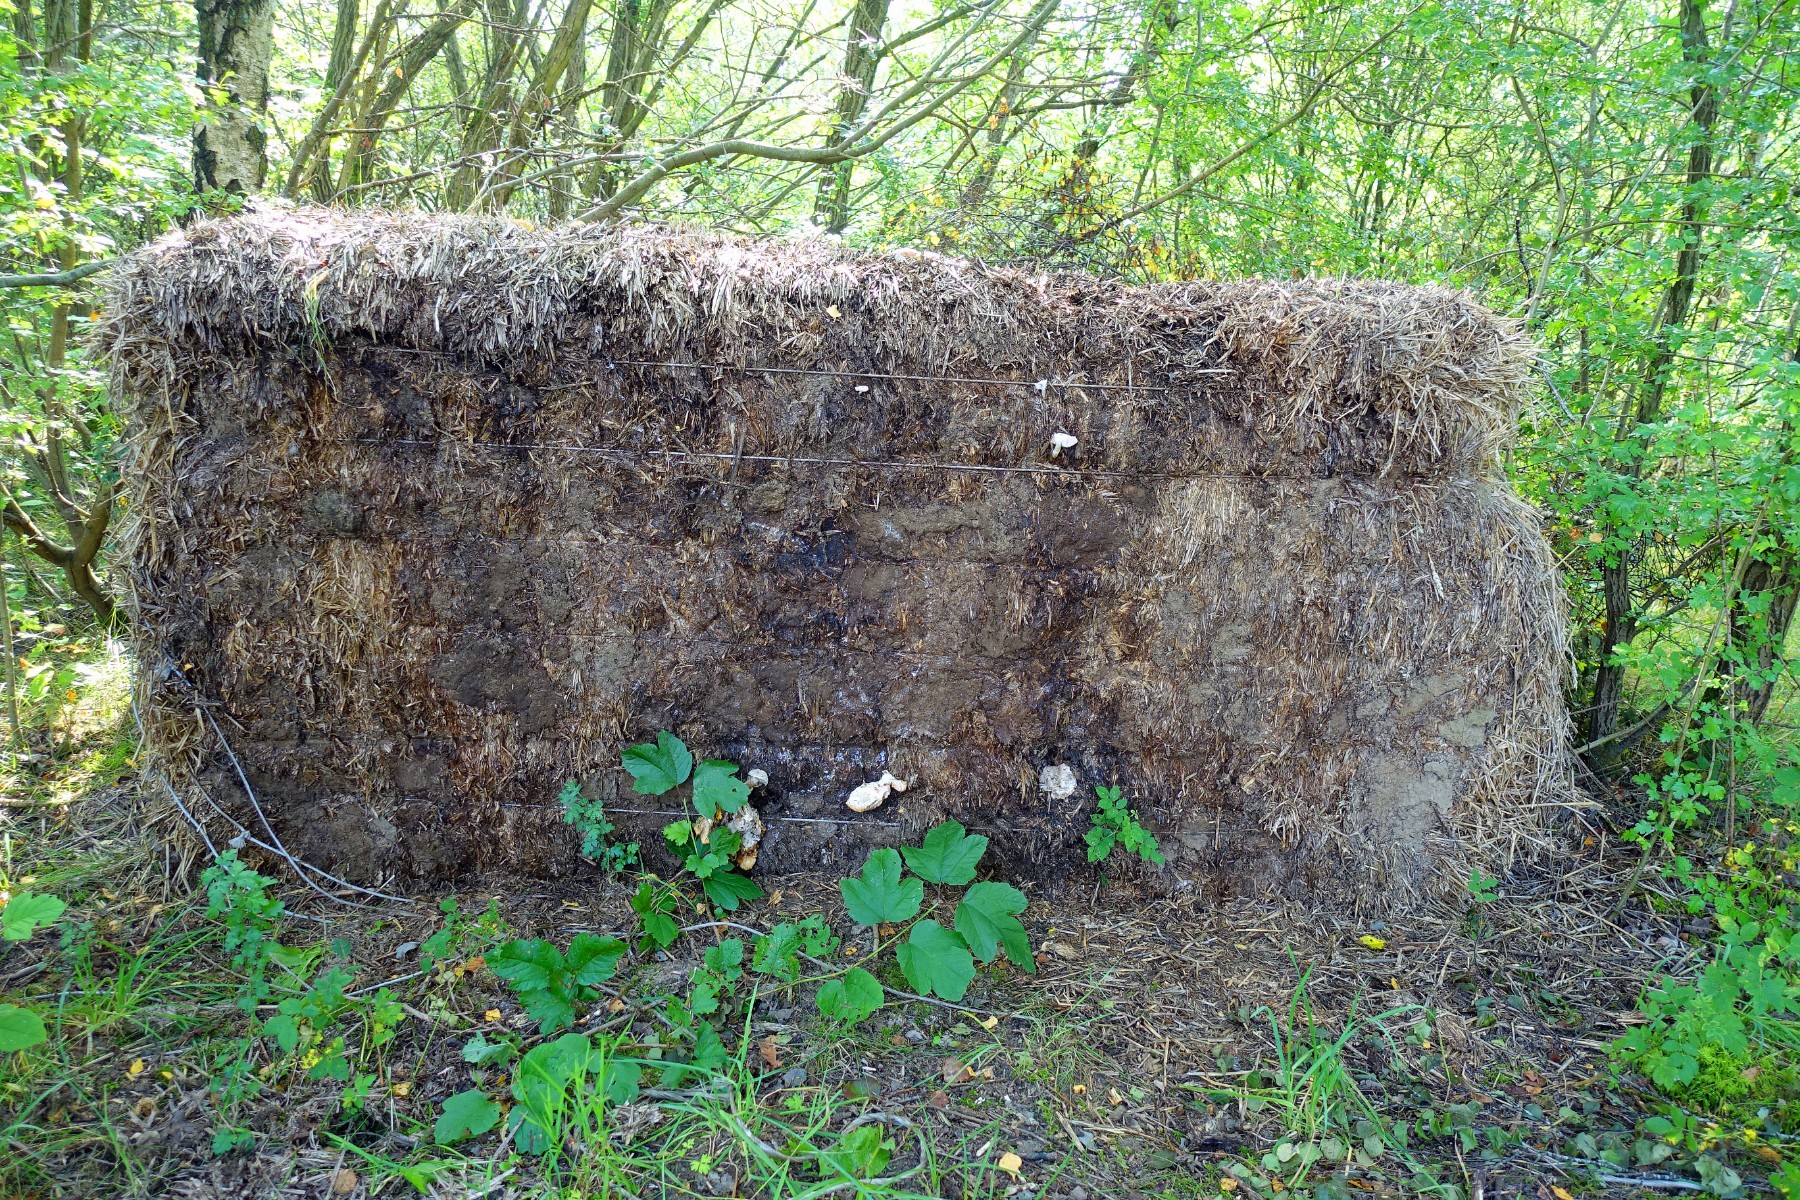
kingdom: Fungi
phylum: Basidiomycota
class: Agaricomycetes
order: Agaricales
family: Pluteaceae
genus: Pluteus
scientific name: Pluteus cervinus
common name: sodfarvet skærmhat
